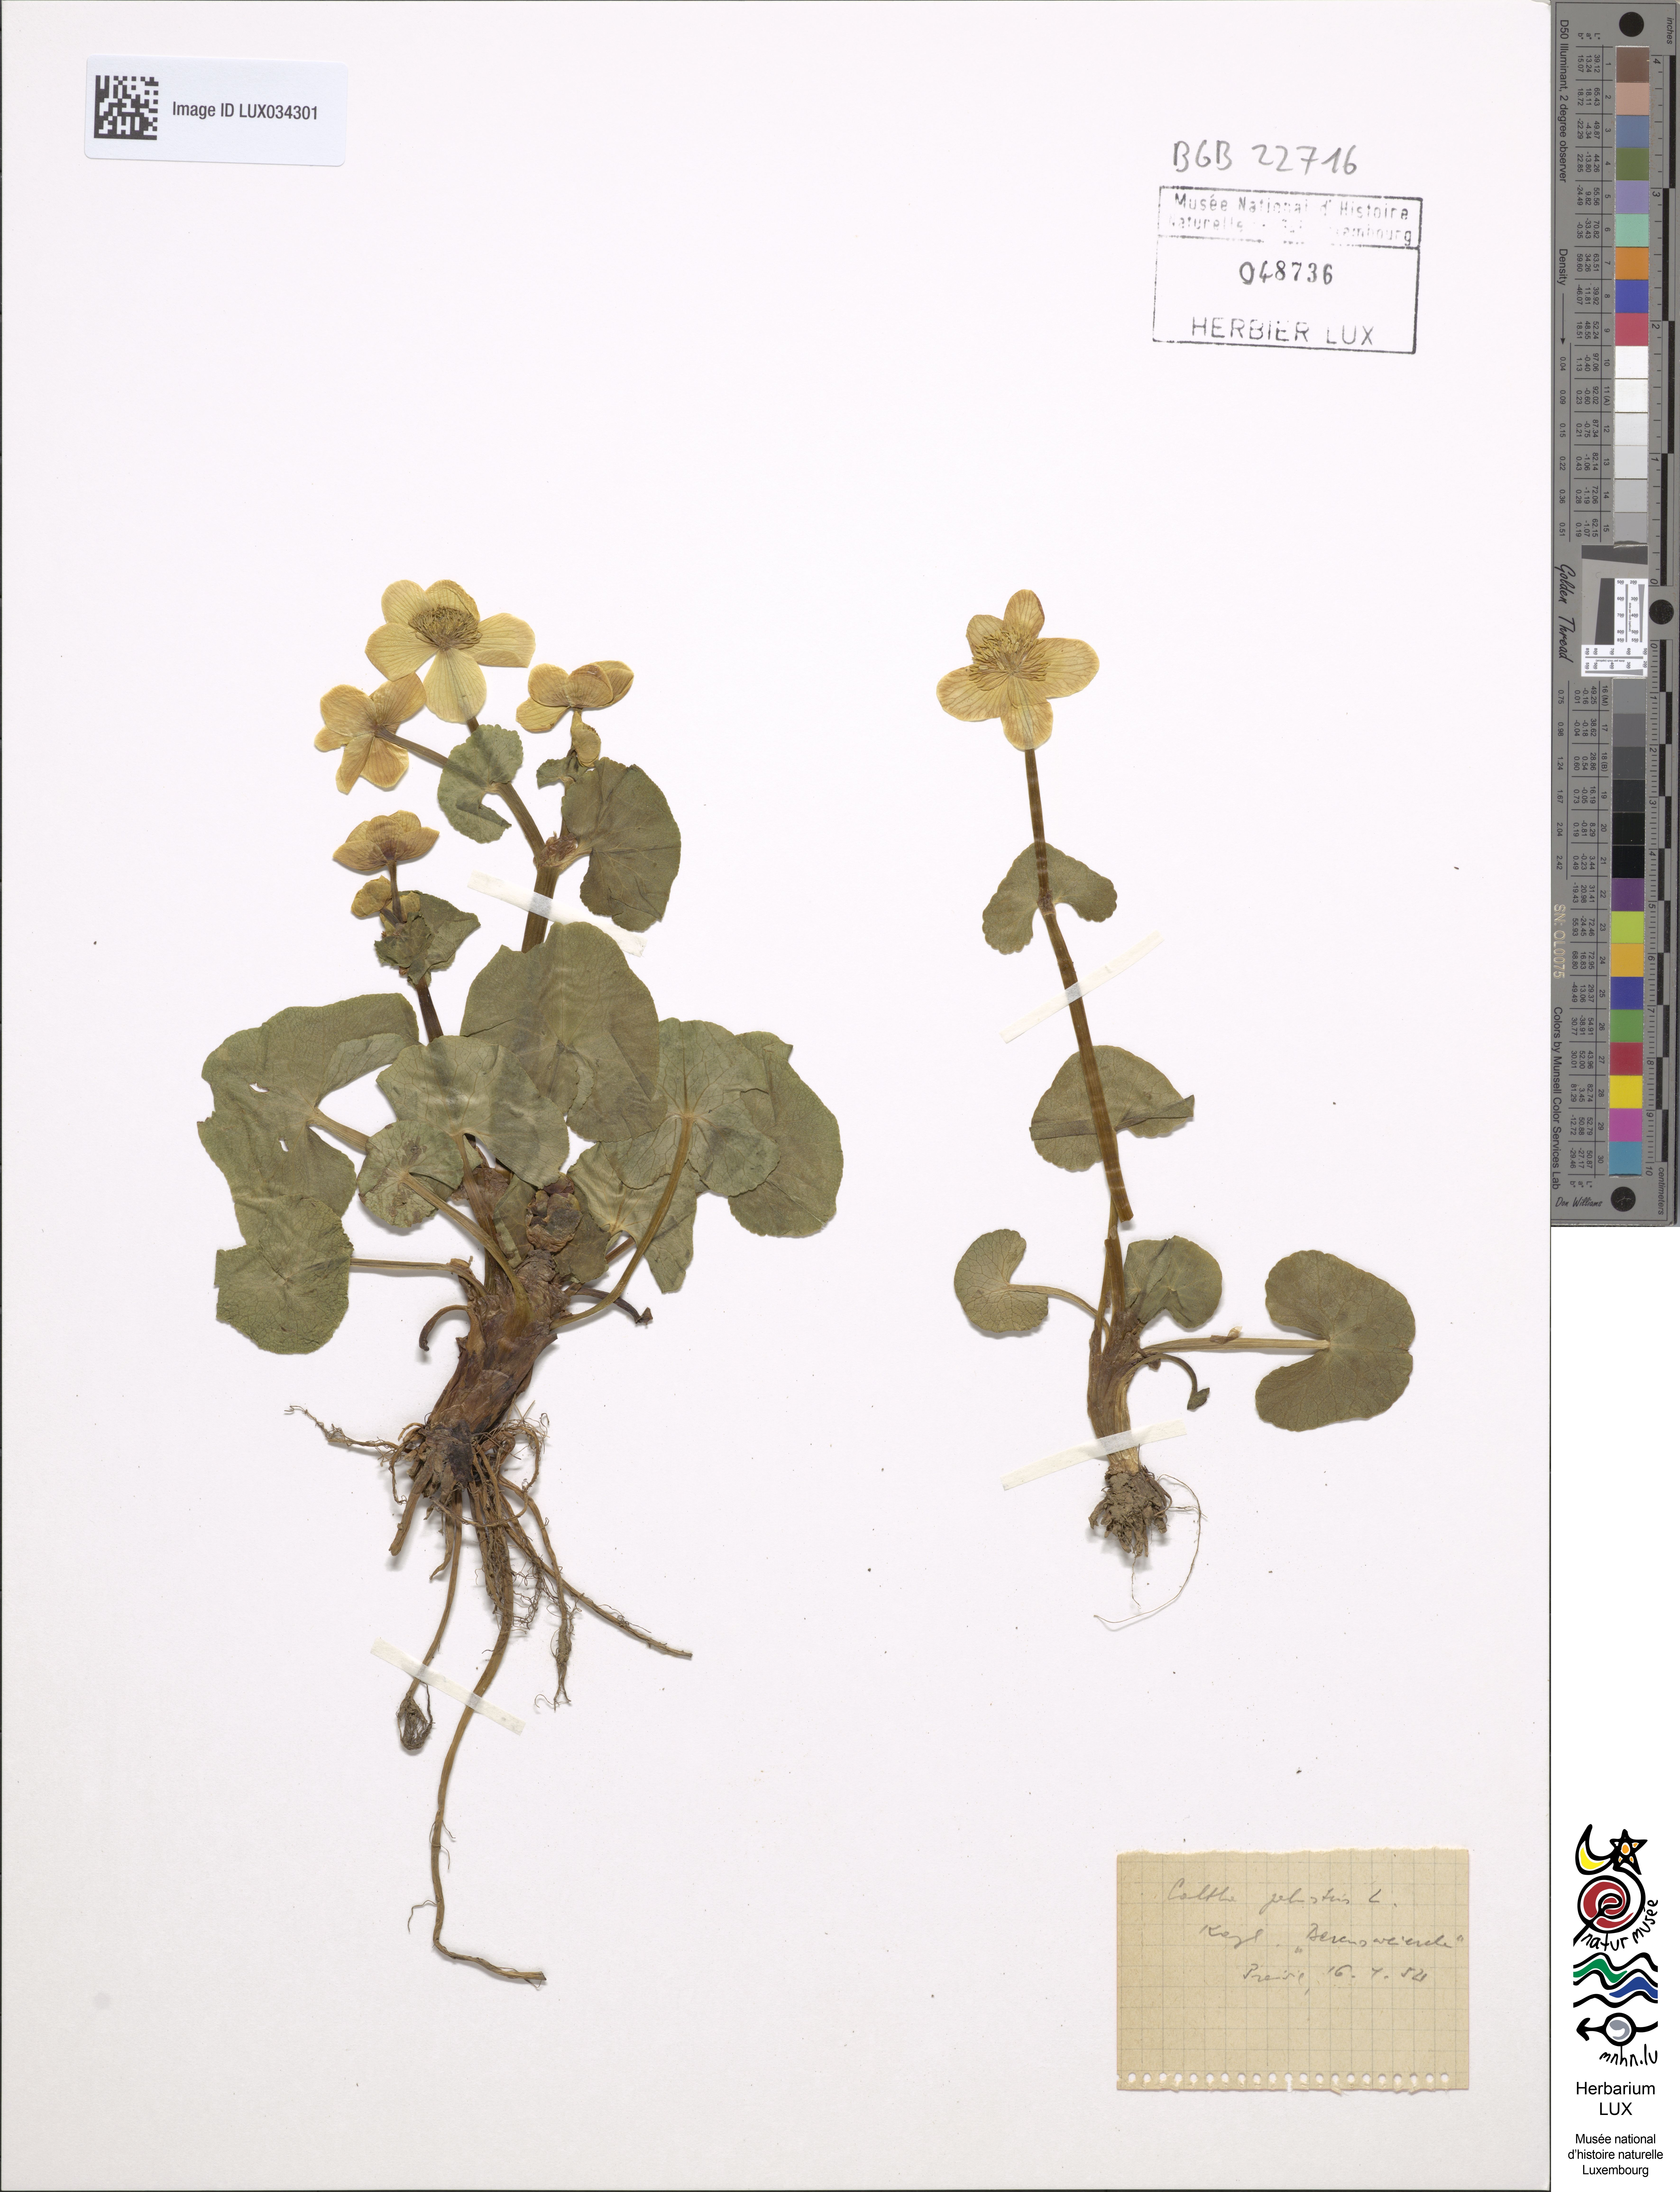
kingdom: Plantae
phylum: Tracheophyta
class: Magnoliopsida
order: Ranunculales
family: Ranunculaceae
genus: Caltha
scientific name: Caltha palustris
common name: Marsh marigold
